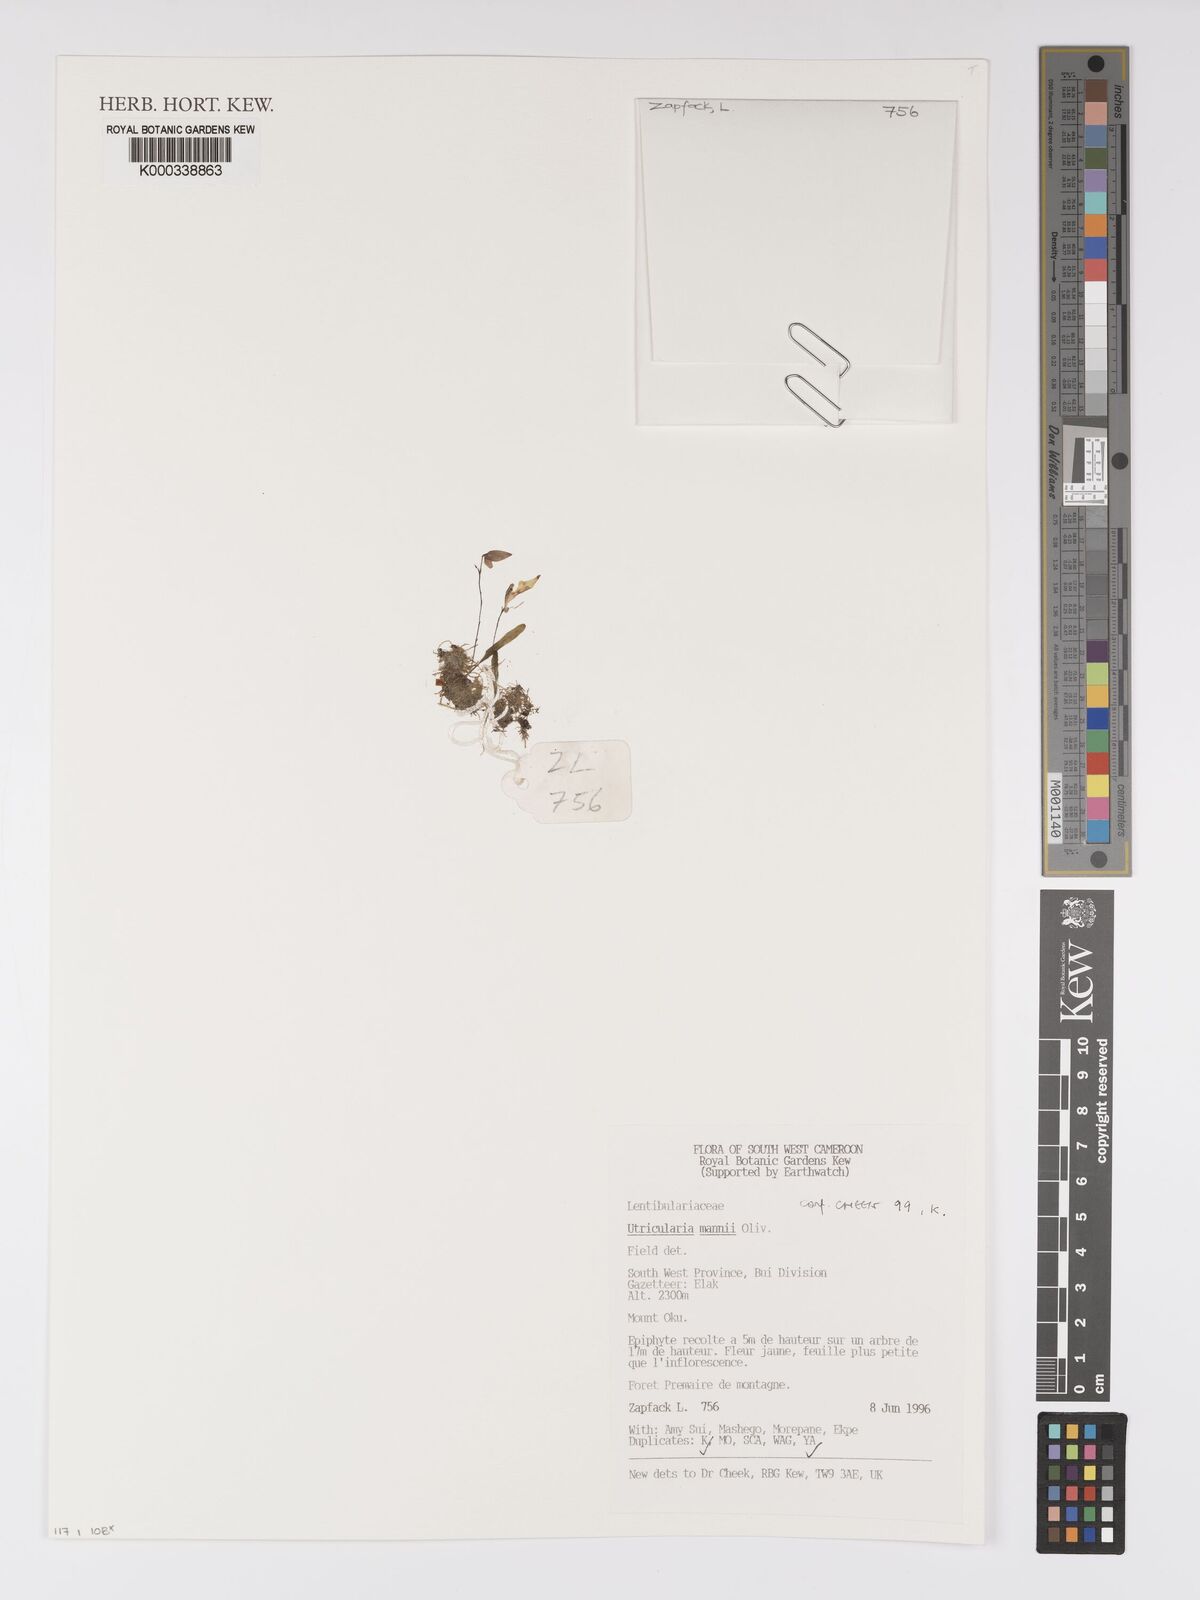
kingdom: Plantae
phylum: Tracheophyta
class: Magnoliopsida
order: Lamiales
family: Lentibulariaceae
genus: Utricularia
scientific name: Utricularia mannii
